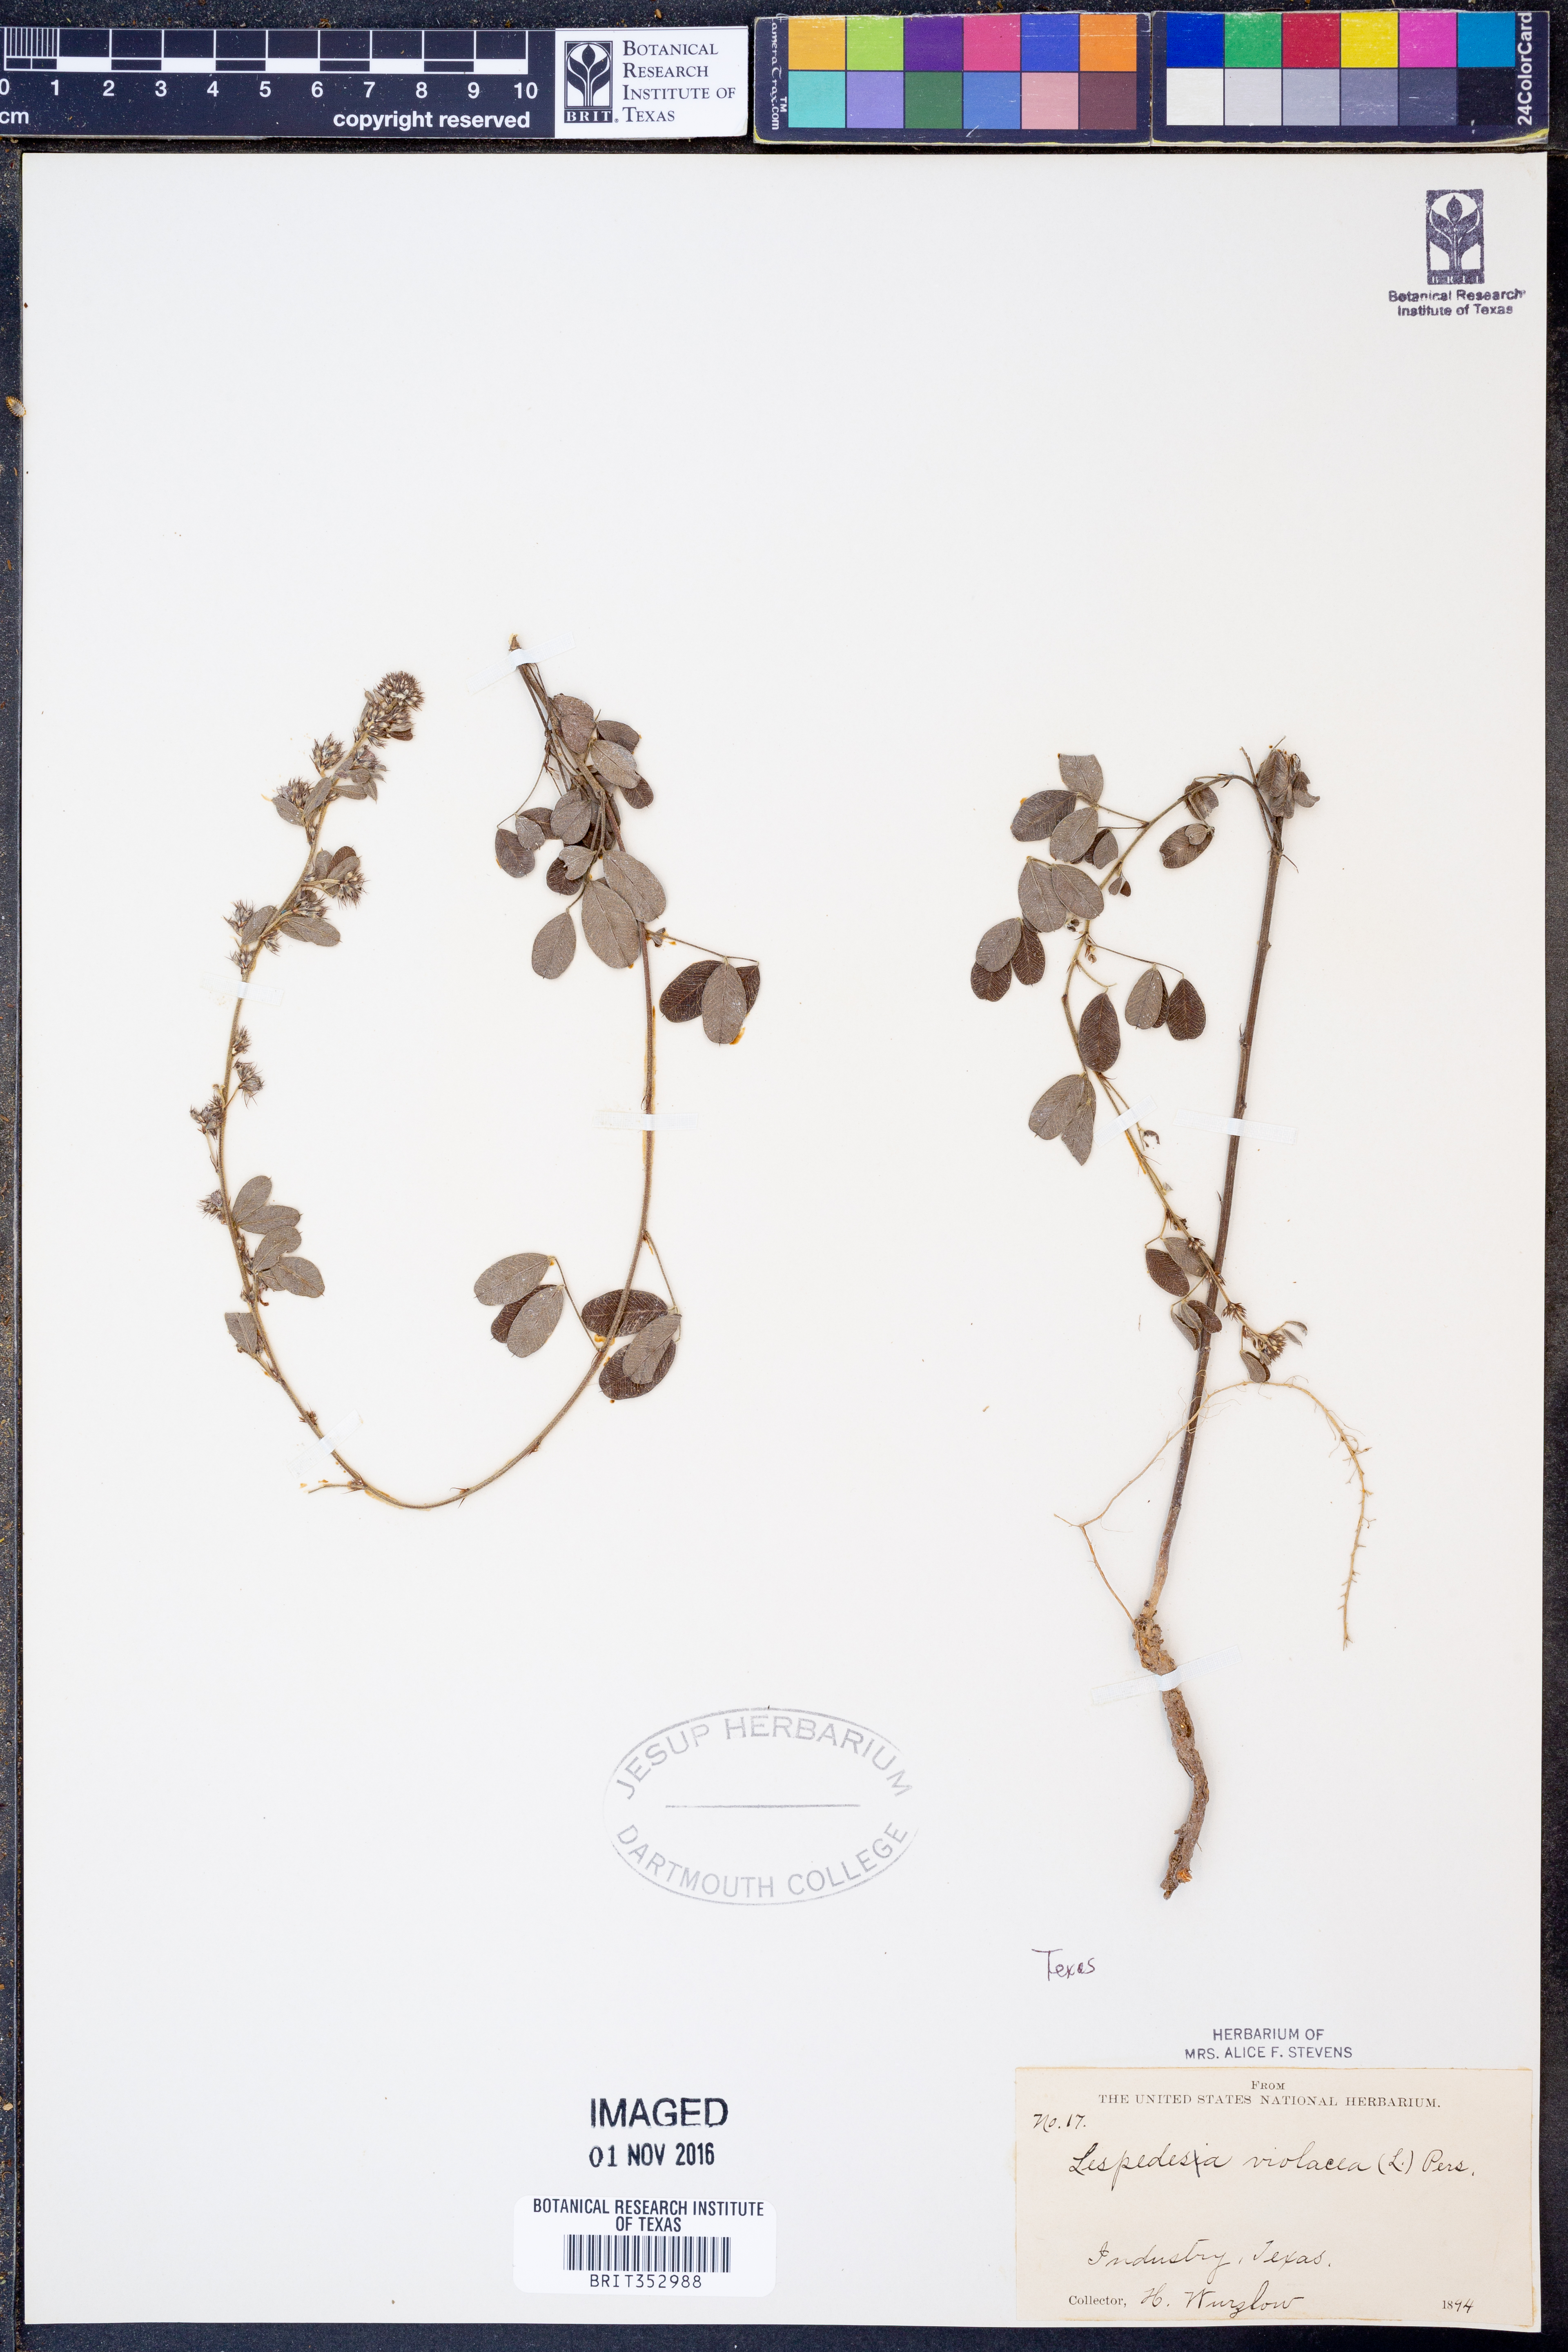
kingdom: Plantae
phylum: Tracheophyta
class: Magnoliopsida
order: Fabales
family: Fabaceae
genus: Lespedeza
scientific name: Lespedeza violacea
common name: Wand bush-clover
